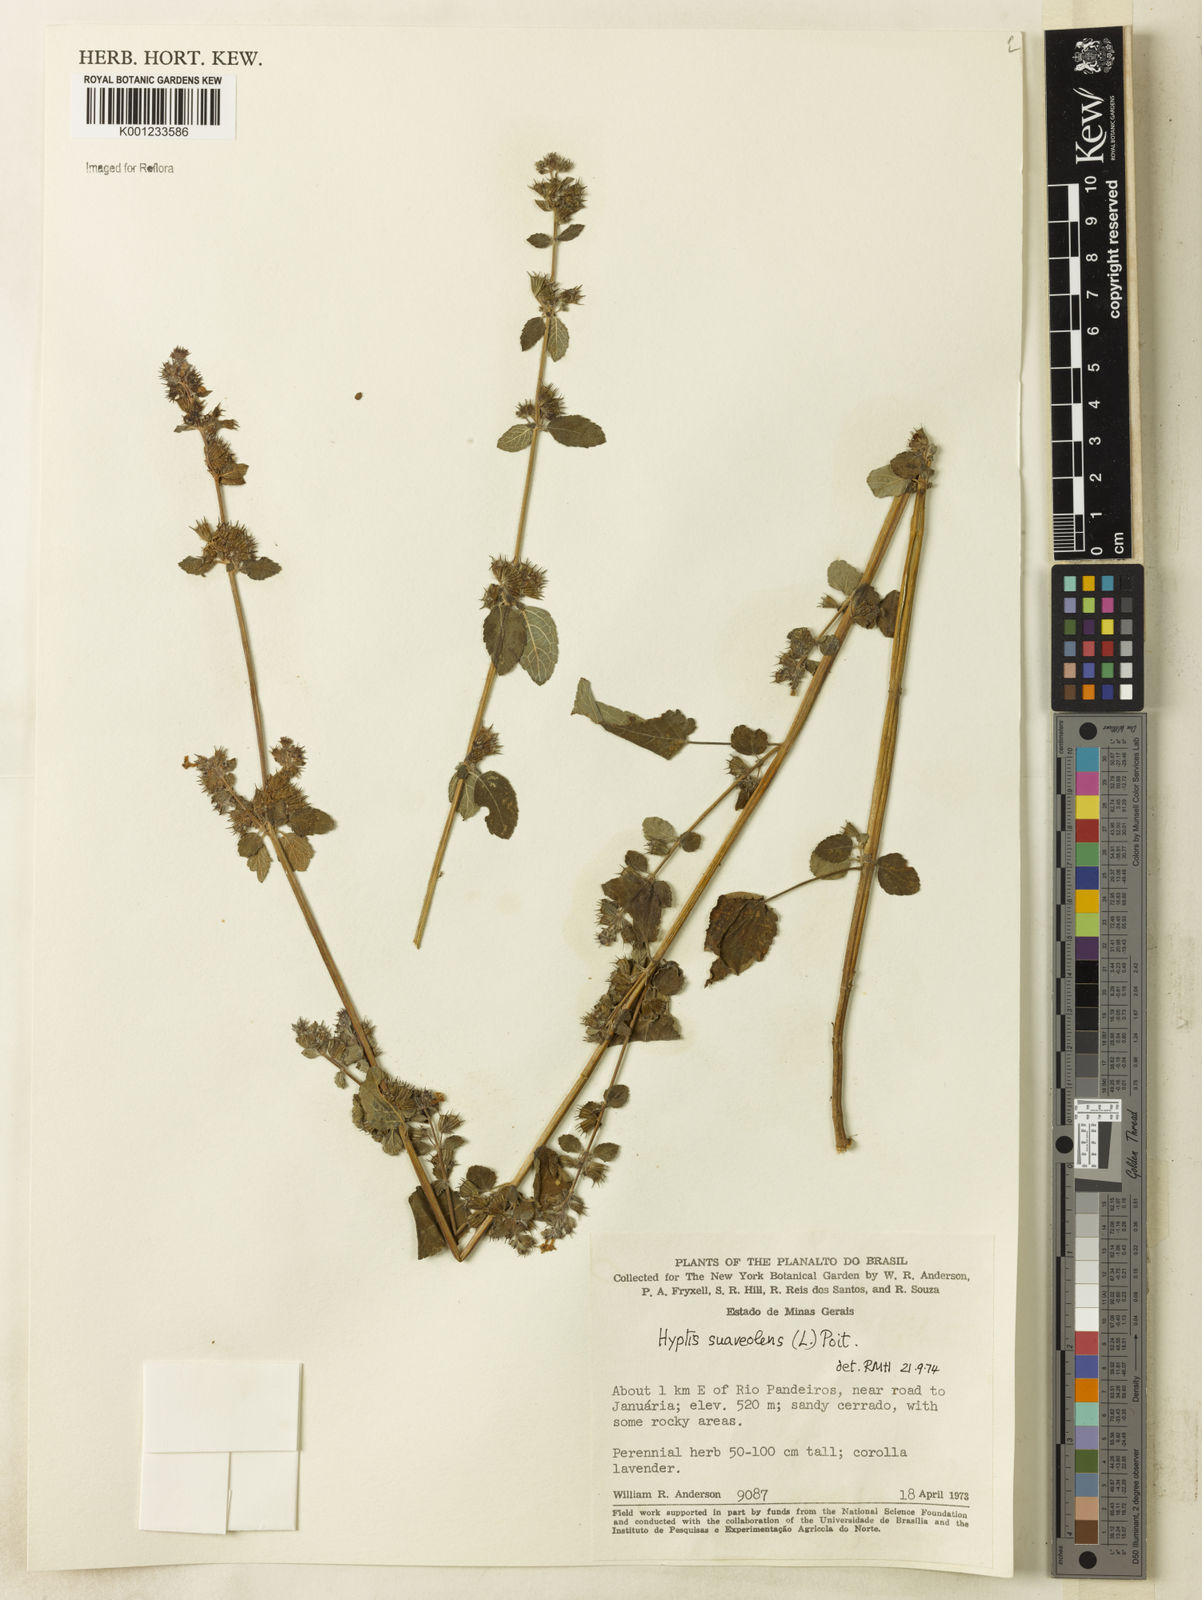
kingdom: Plantae
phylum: Tracheophyta
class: Magnoliopsida
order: Lamiales
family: Lamiaceae
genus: Mesosphaerum
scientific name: Mesosphaerum suaveolens
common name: Pignut
